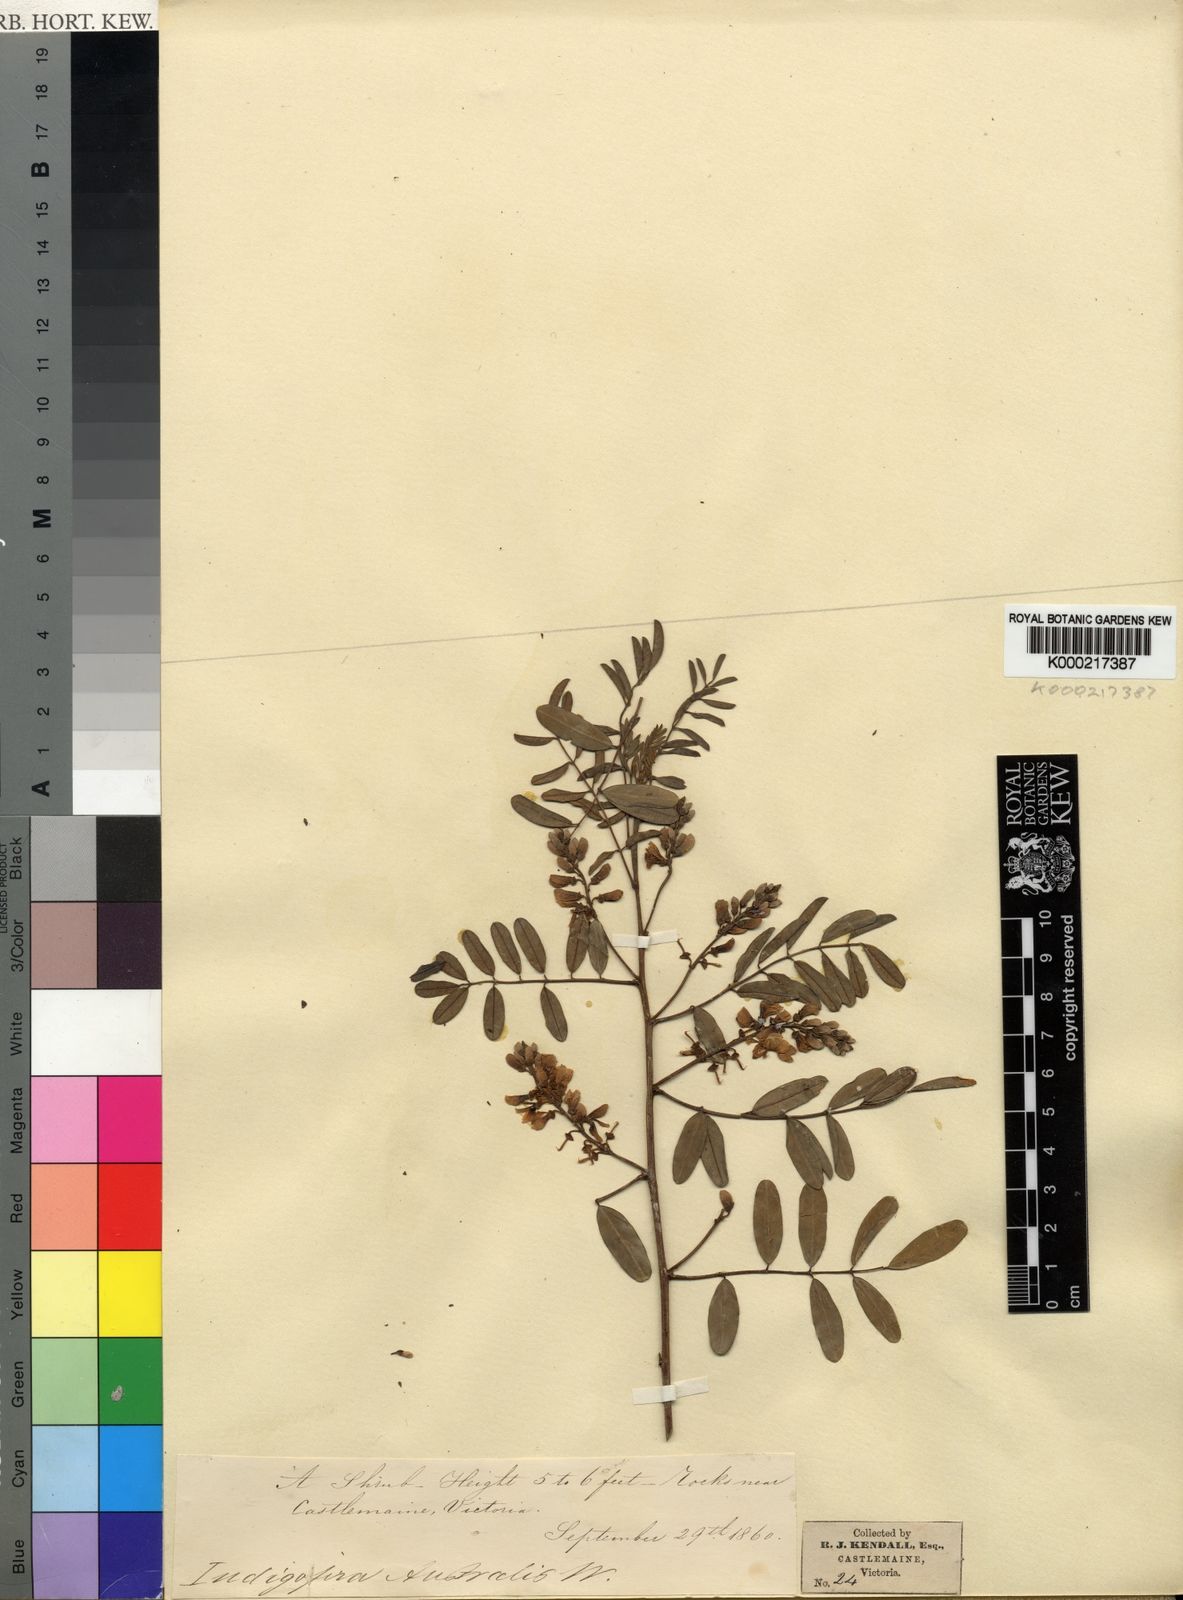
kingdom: Plantae
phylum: Tracheophyta
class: Magnoliopsida
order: Fabales
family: Fabaceae
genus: Indigofera
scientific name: Indigofera australis
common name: Australian indigo
